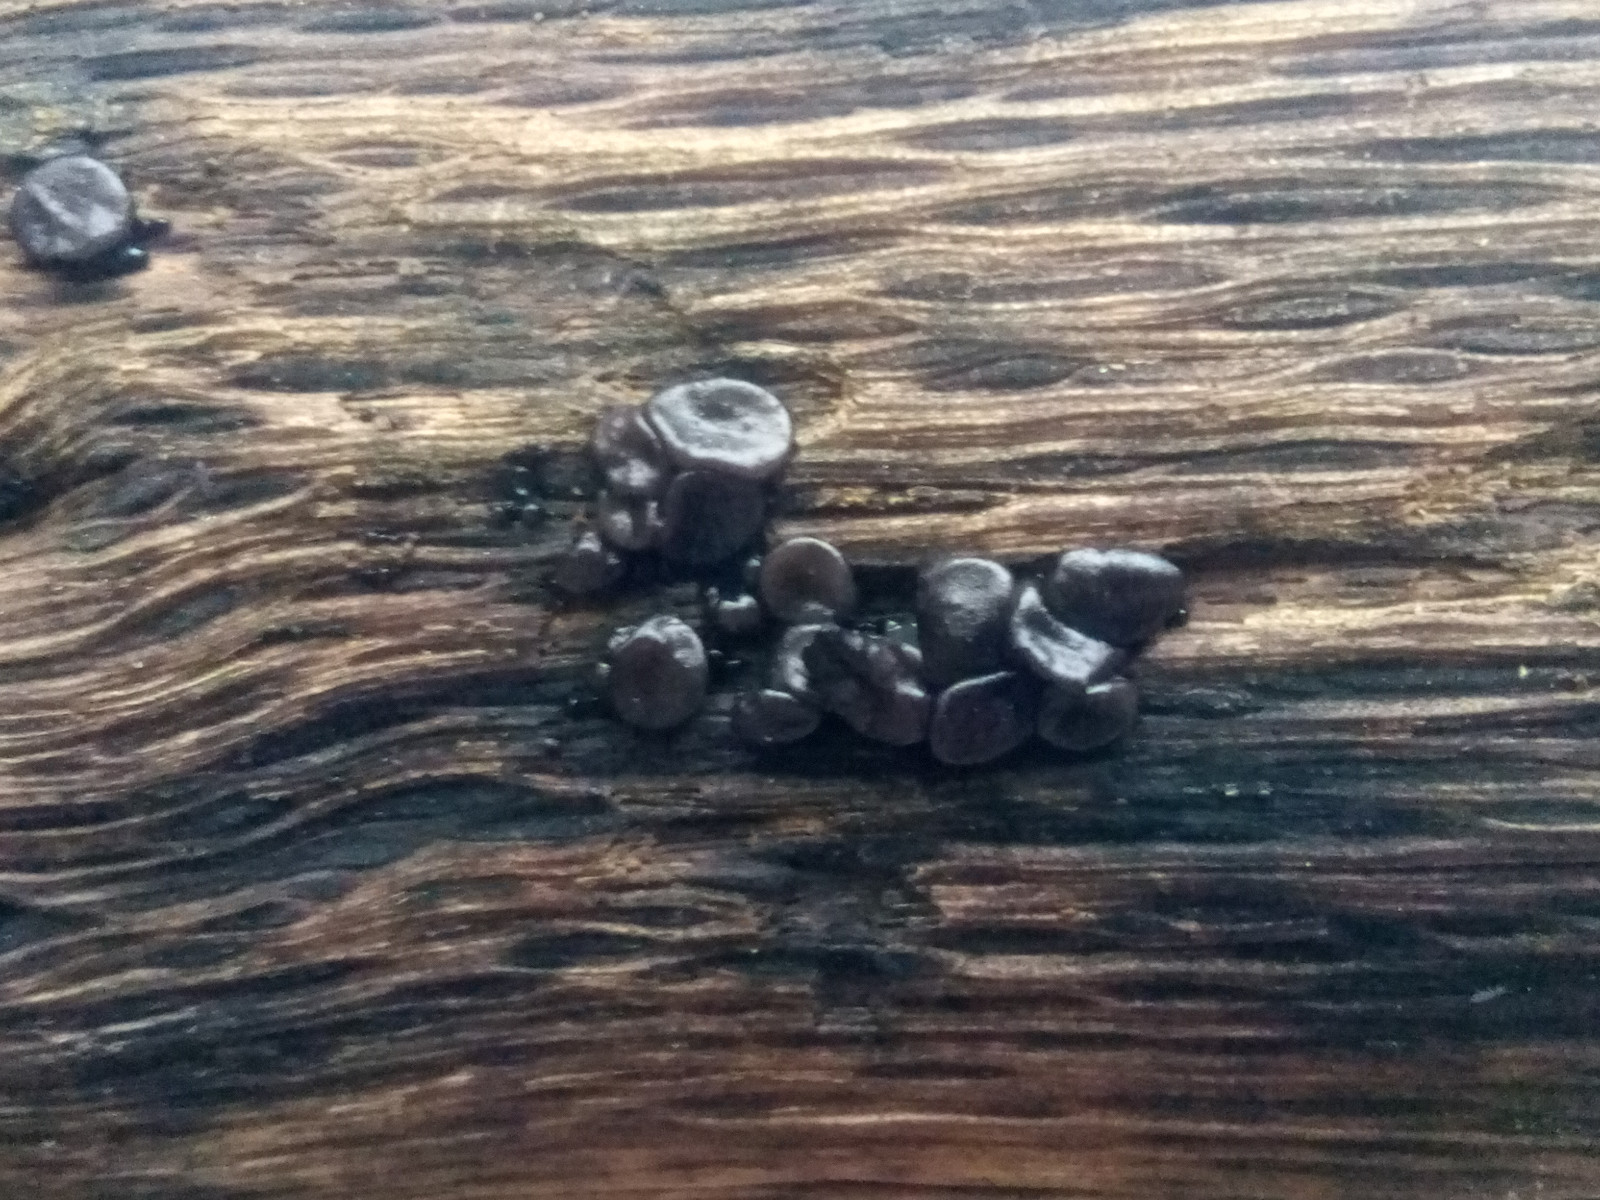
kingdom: Fungi
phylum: Basidiomycota
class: Agaricomycetes
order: Auriculariales
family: Auriculariaceae
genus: Exidia
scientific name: Exidia glandulosa
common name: ege-bævretop
